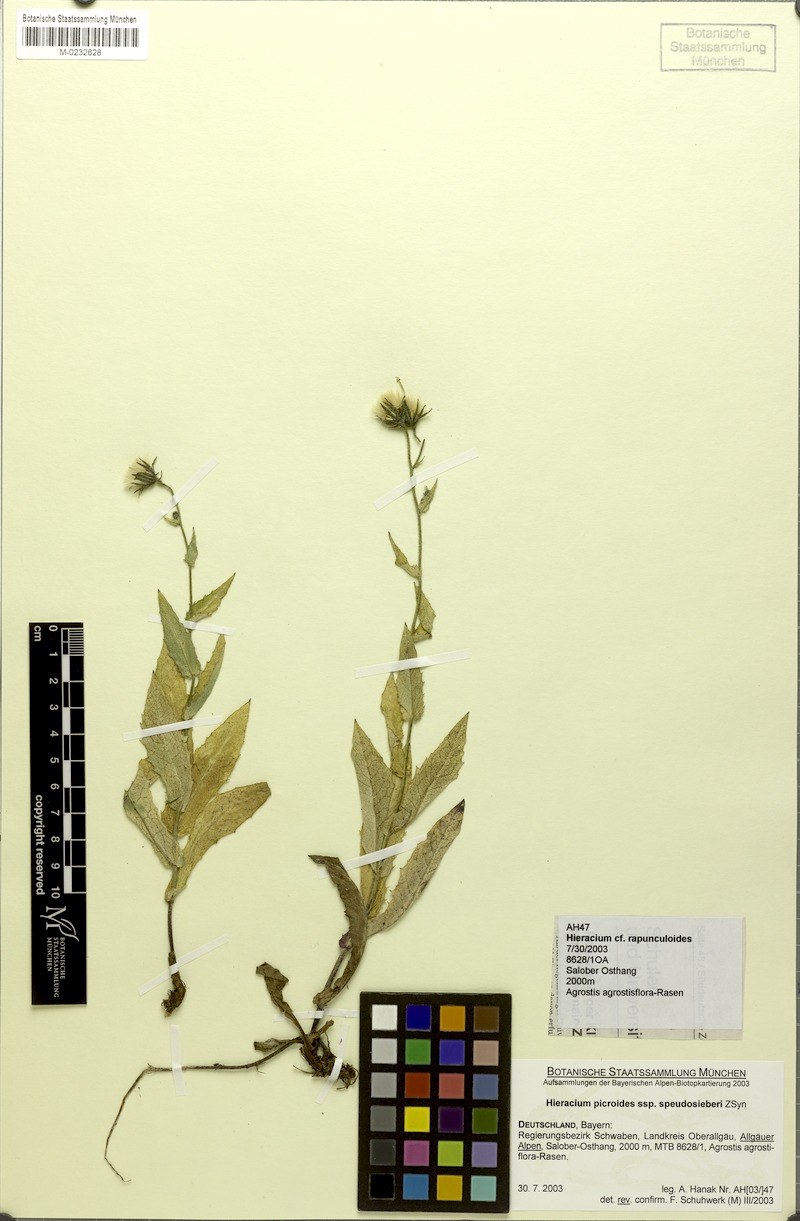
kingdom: Plantae
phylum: Tracheophyta
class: Magnoliopsida
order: Asterales
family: Asteraceae
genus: Hieracium
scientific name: Hieracium picroides
